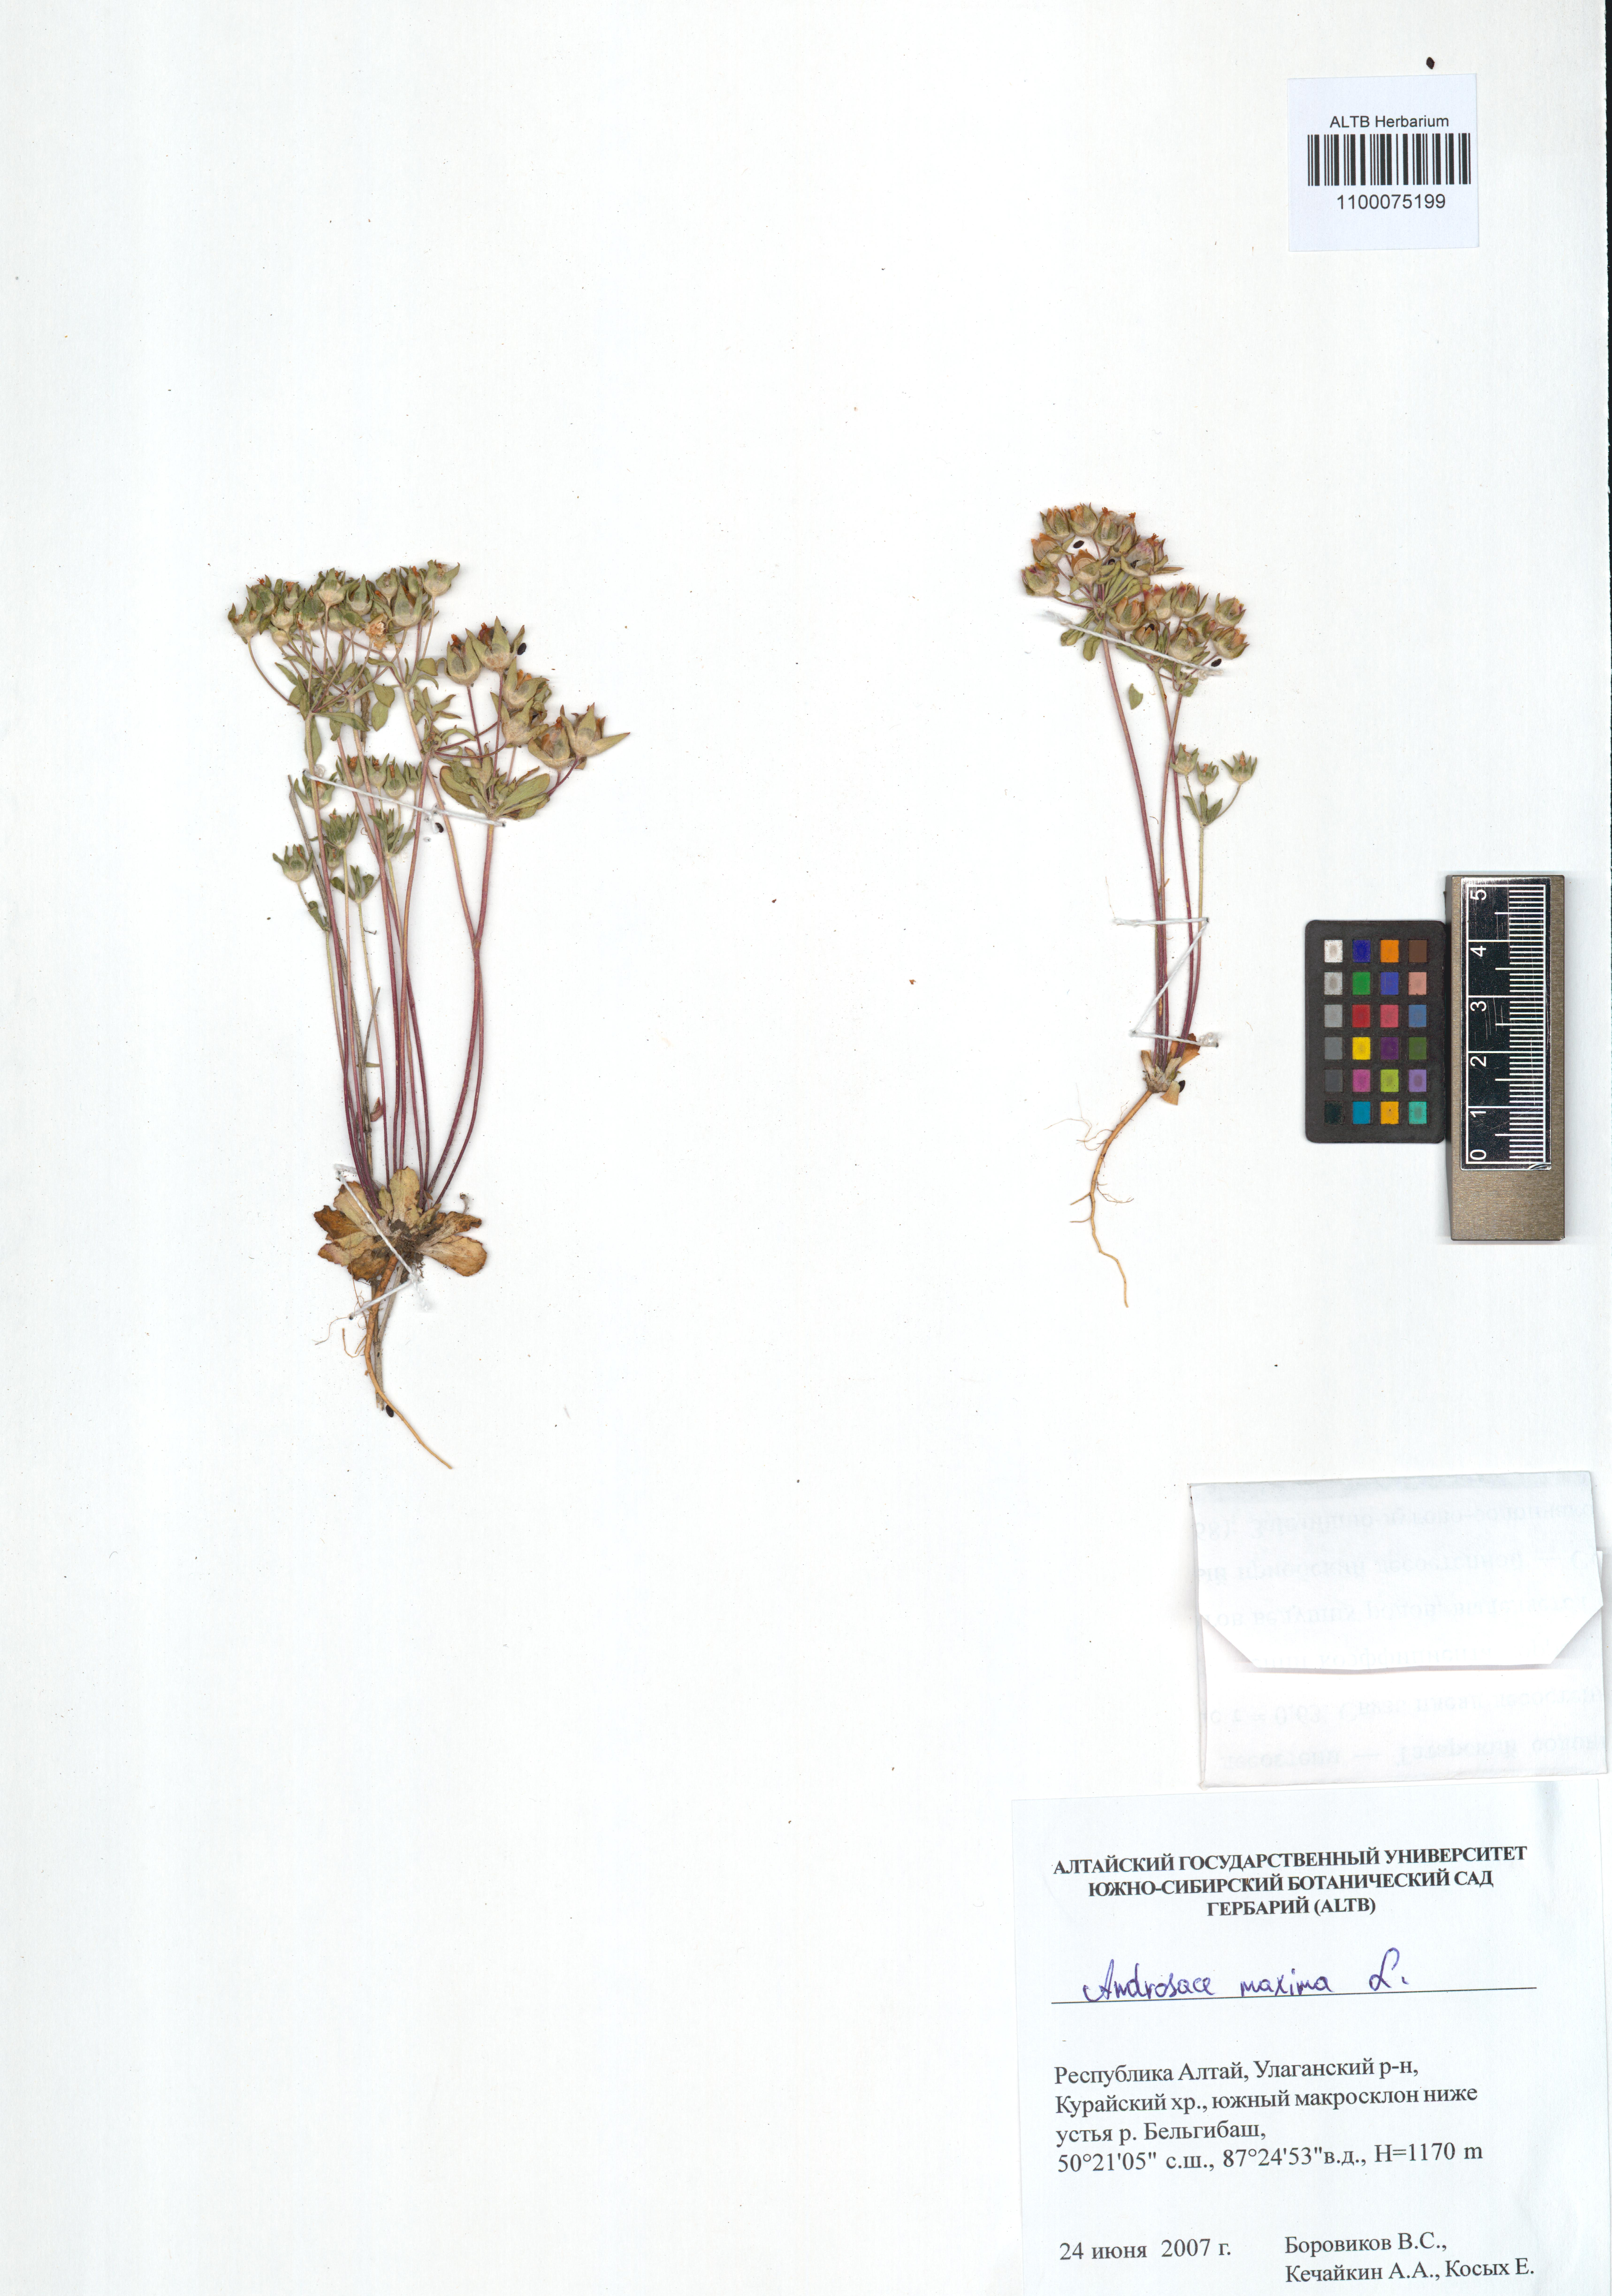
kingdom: Plantae
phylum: Tracheophyta
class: Magnoliopsida
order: Ericales
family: Primulaceae
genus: Androsace
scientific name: Androsace maxima
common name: Annual androsace
